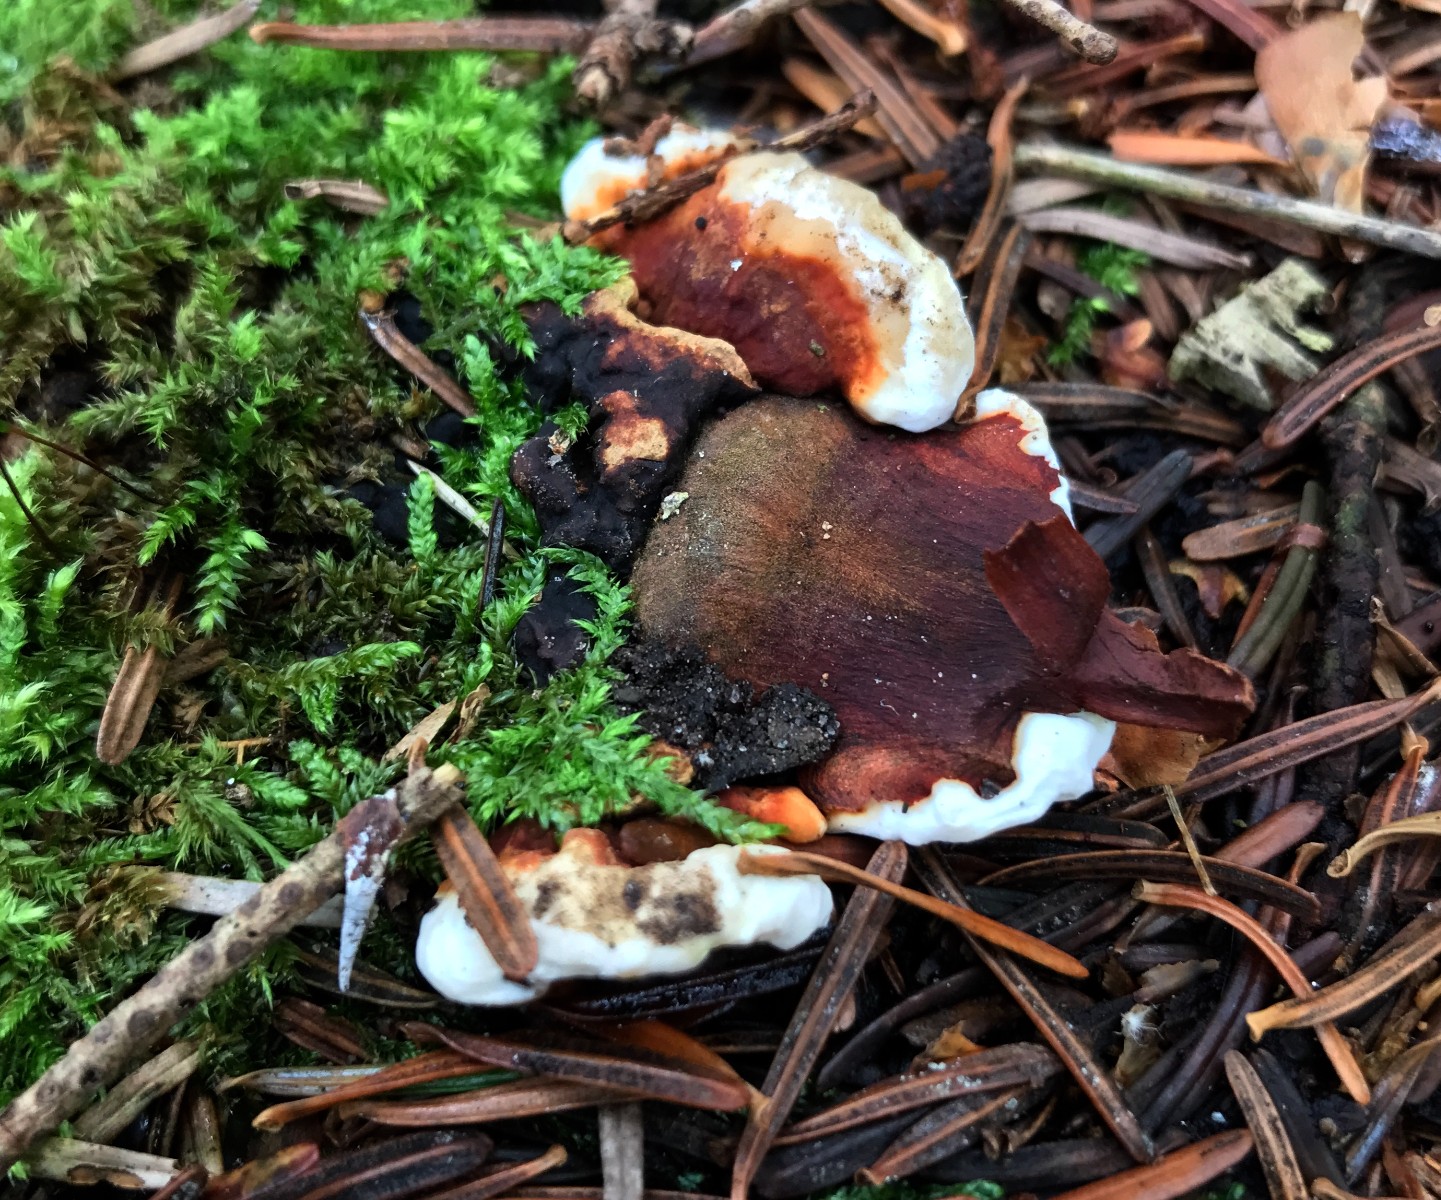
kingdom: Fungi
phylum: Basidiomycota
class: Agaricomycetes
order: Russulales
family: Bondarzewiaceae
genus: Heterobasidion
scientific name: Heterobasidion annosum
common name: almindelig rodfordærver
